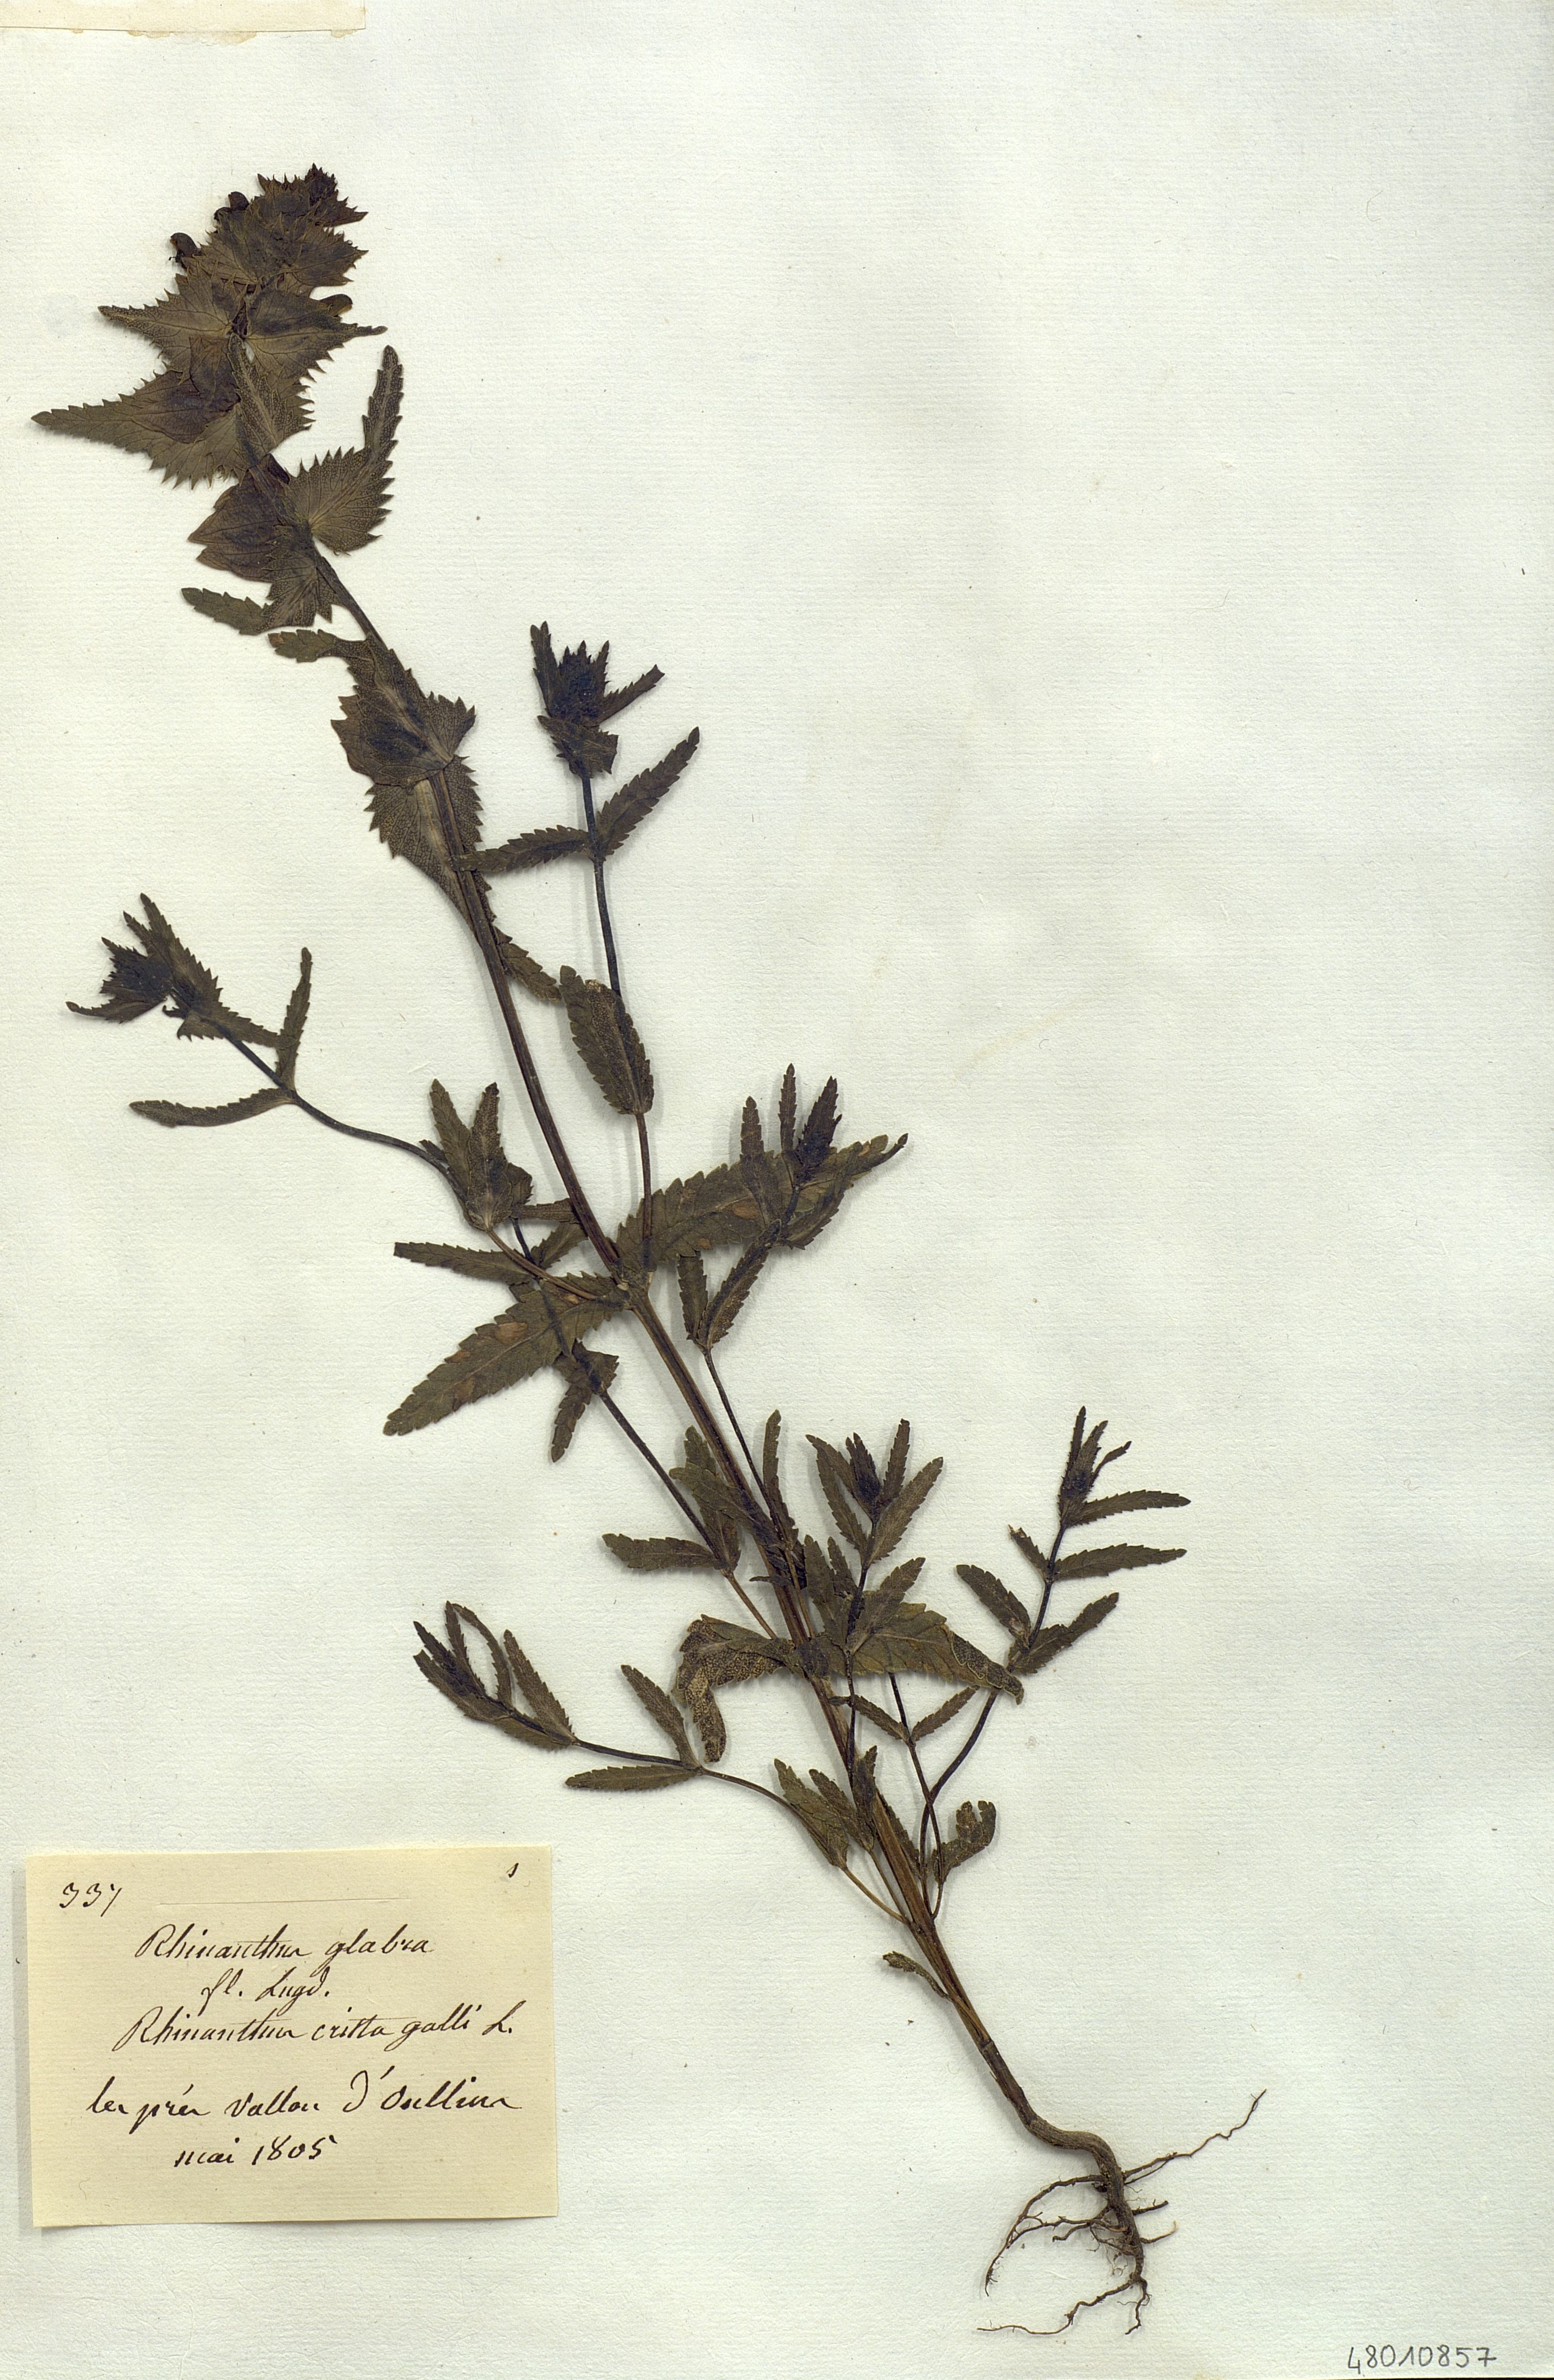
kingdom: Plantae
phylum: Tracheophyta
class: Magnoliopsida
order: Lamiales
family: Orobanchaceae
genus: Rhinanthus
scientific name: Rhinanthus serotinus
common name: Late-flowering yellow rattle
